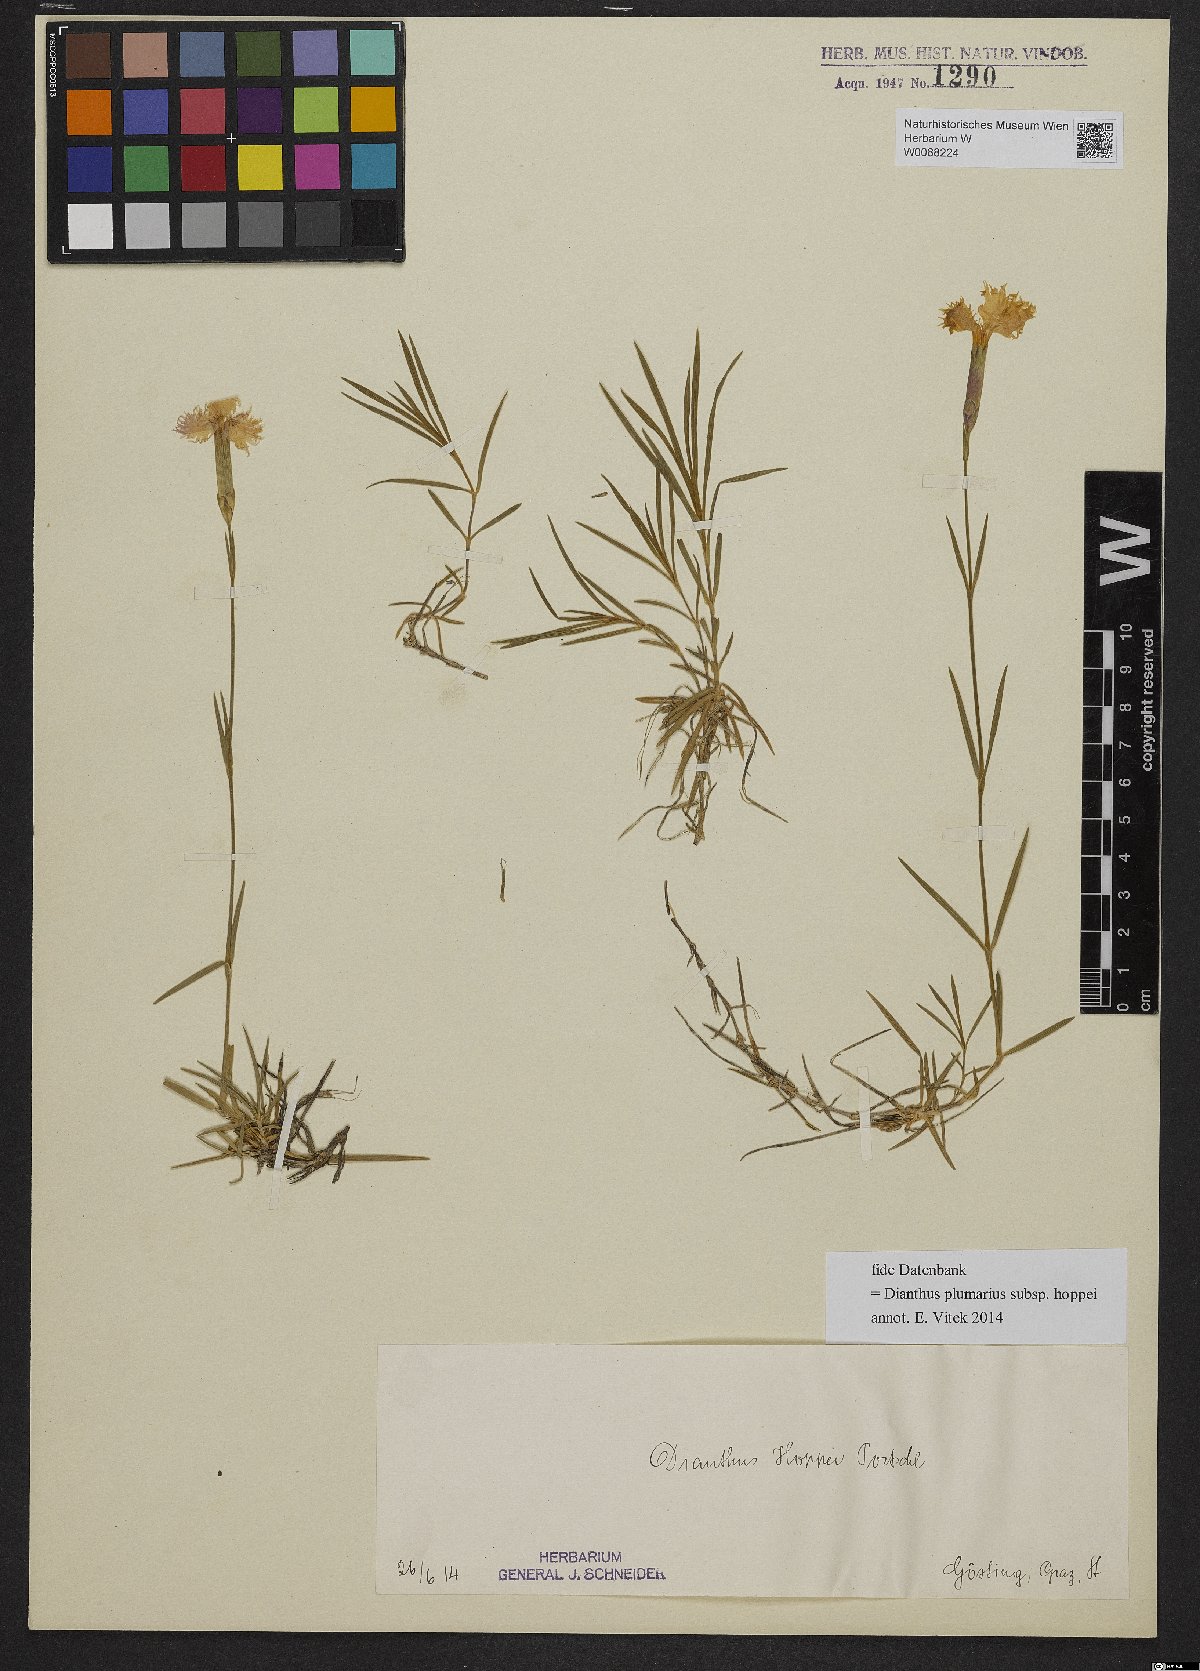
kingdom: Plantae
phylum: Tracheophyta
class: Magnoliopsida
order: Caryophyllales
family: Caryophyllaceae
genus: Dianthus
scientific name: Dianthus plumarius
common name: Pink
